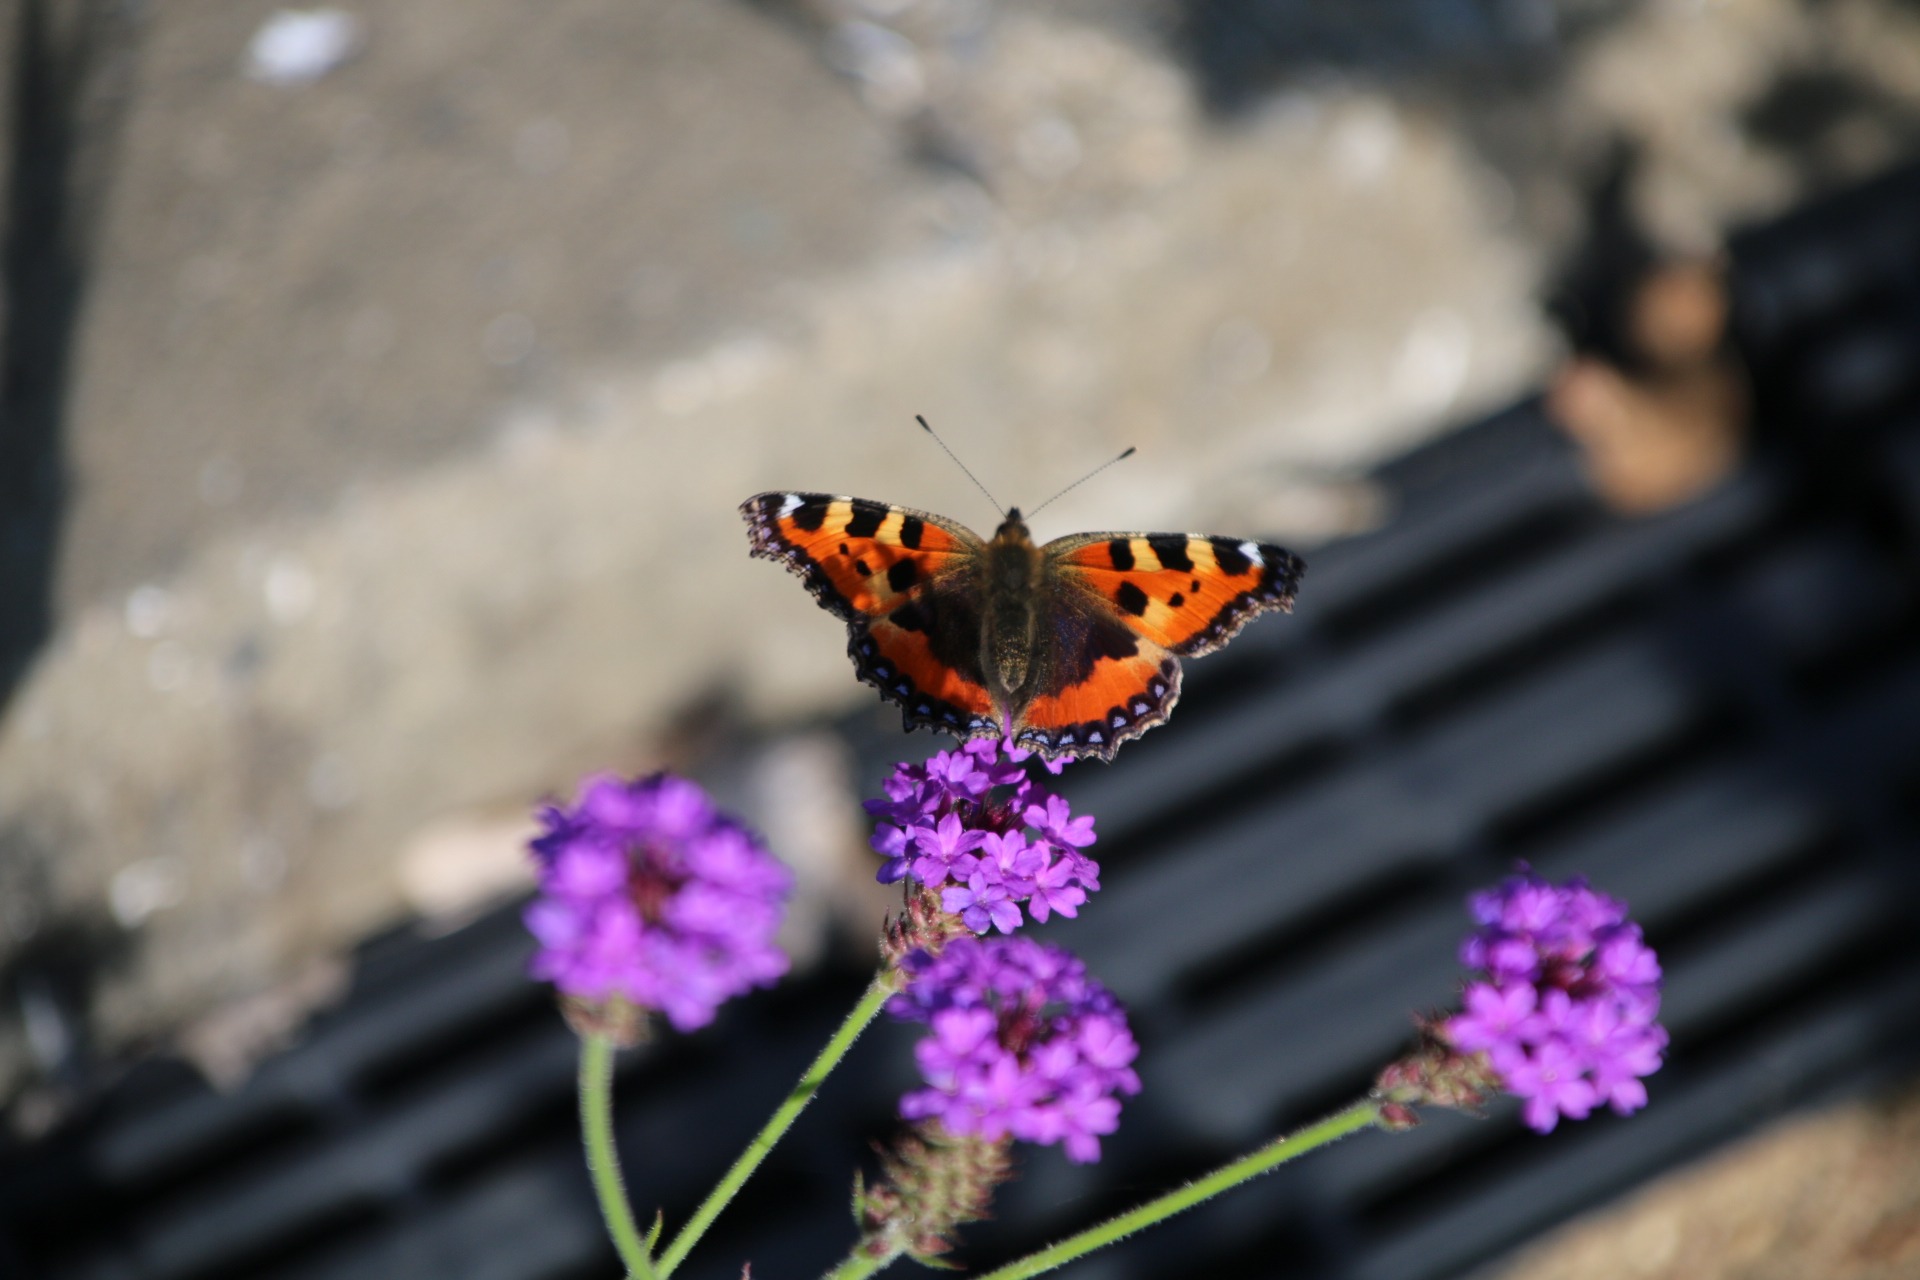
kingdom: Animalia
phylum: Arthropoda
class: Insecta
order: Lepidoptera
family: Nymphalidae
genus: Aglais
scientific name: Aglais urticae
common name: Nældens takvinge
